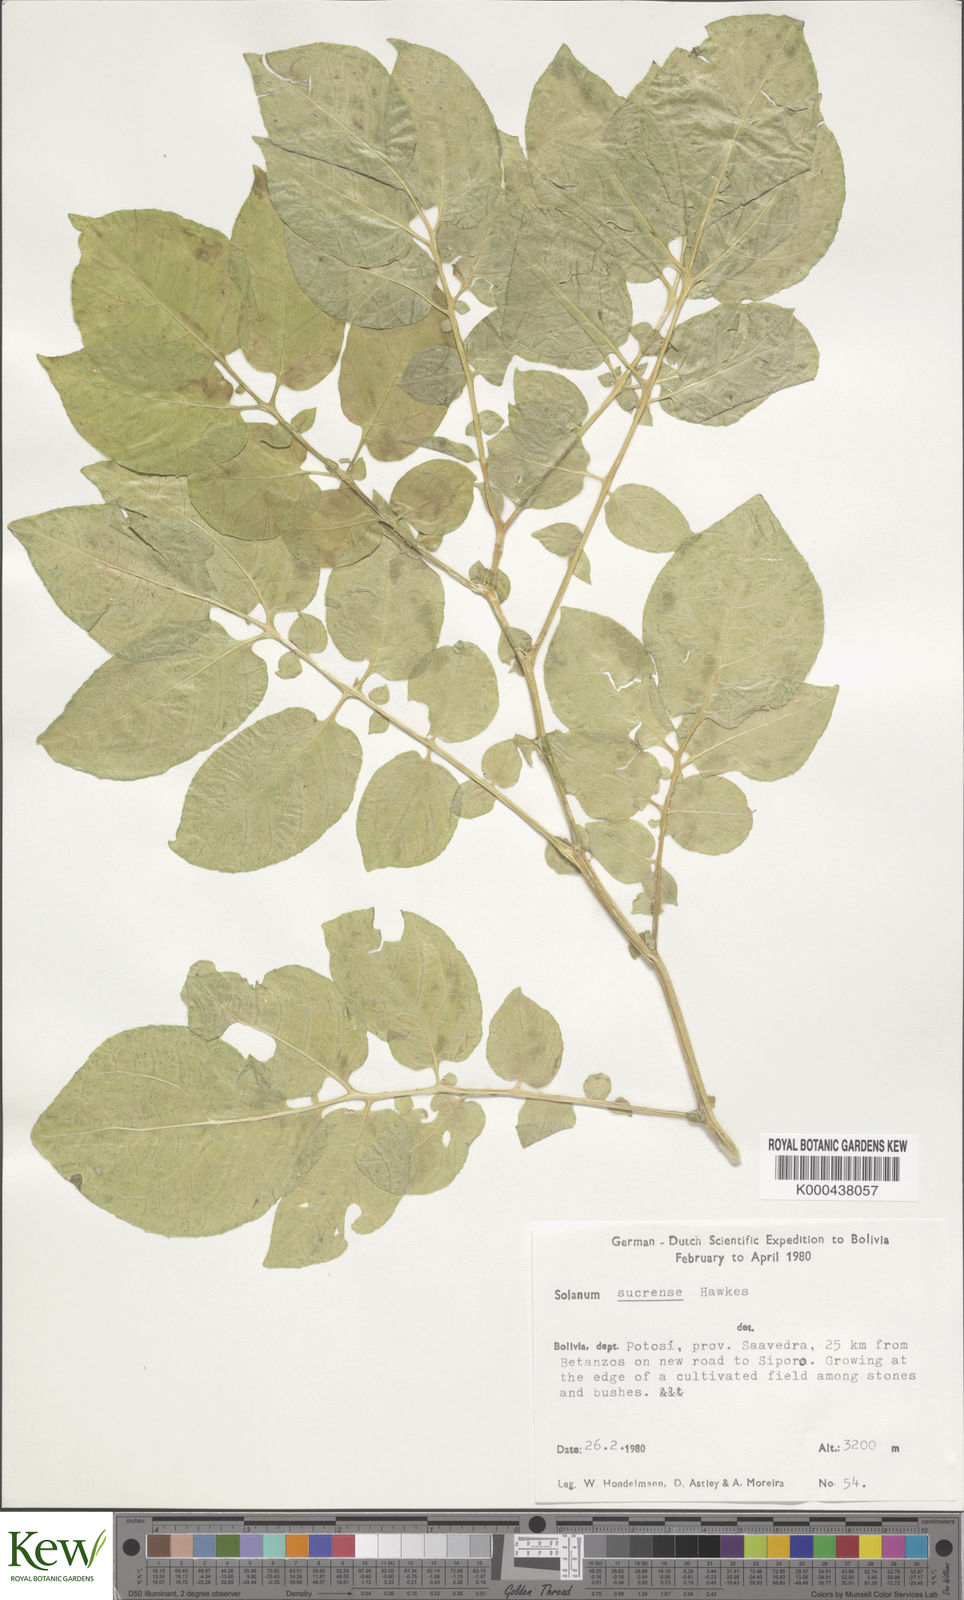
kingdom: Plantae
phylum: Tracheophyta
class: Magnoliopsida
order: Solanales
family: Solanaceae
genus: Solanum
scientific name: Solanum brevicaule
